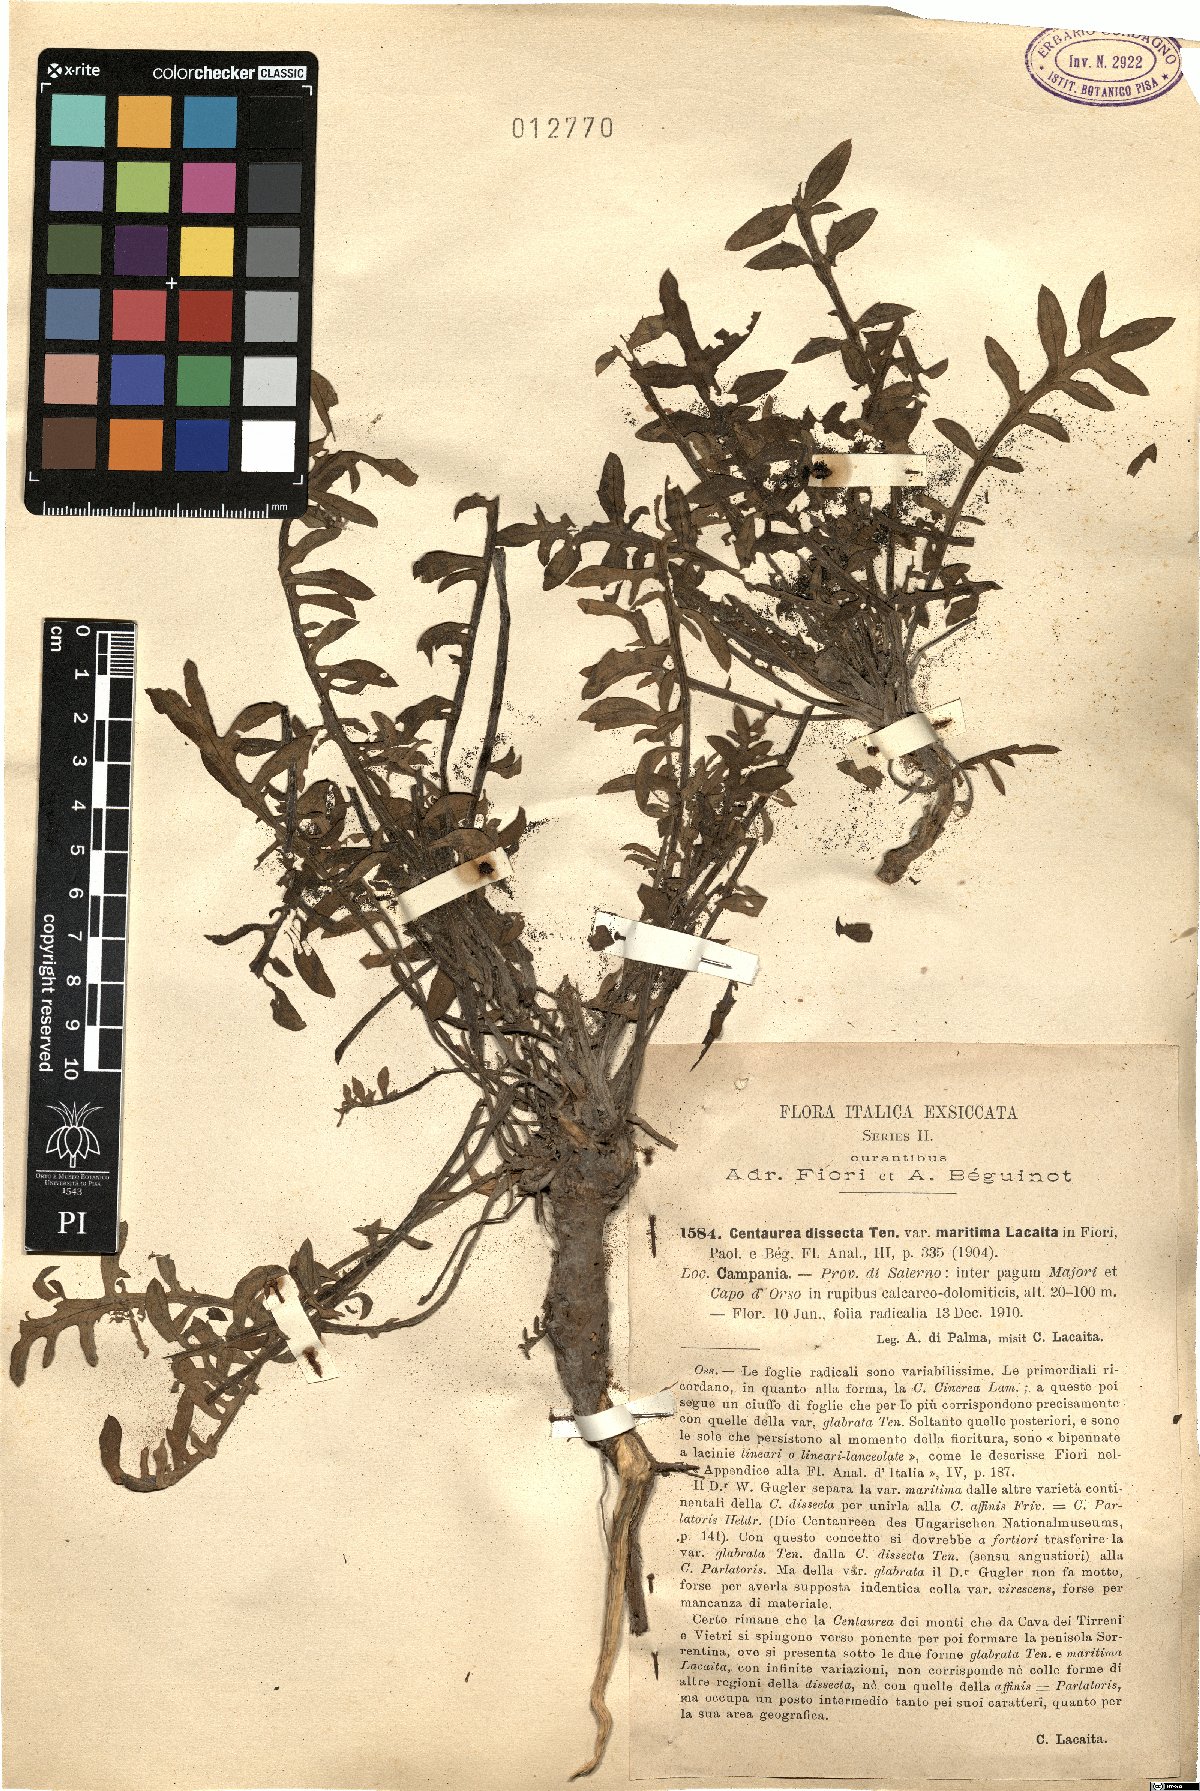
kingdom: Plantae
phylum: Tracheophyta
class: Magnoliopsida
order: Asterales
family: Asteraceae
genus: Centaurea
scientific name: Centaurea tenorei
